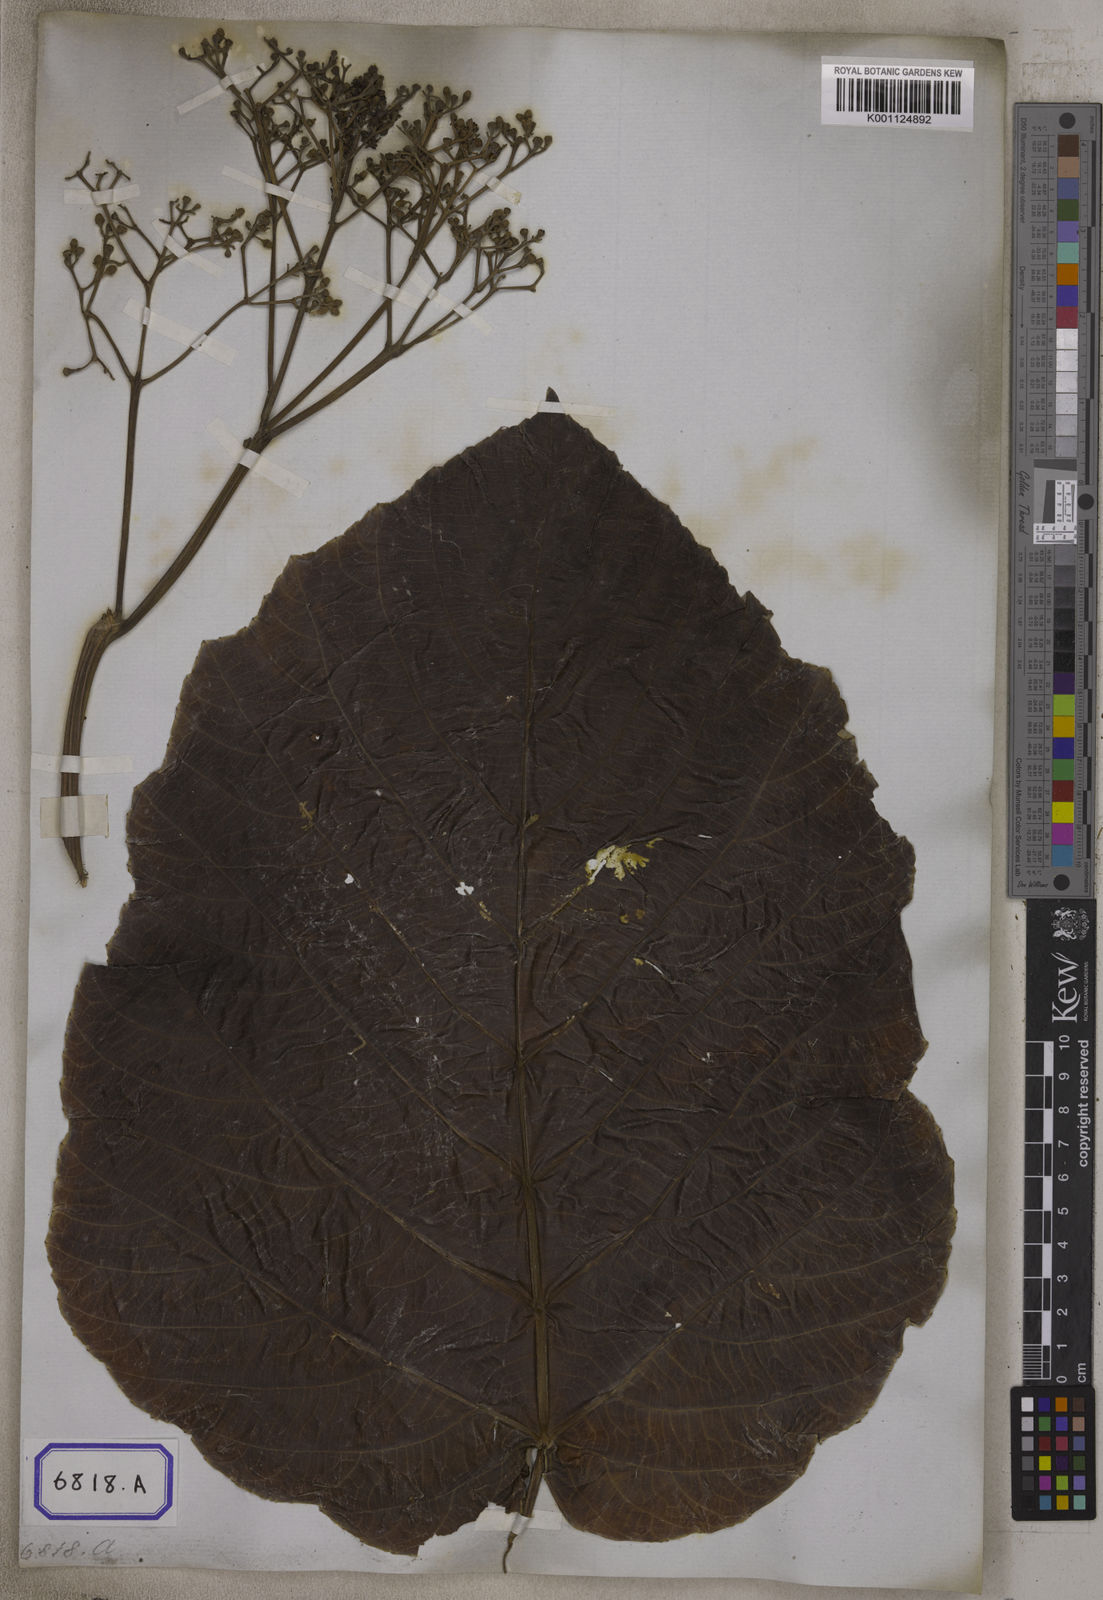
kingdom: Plantae
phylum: Tracheophyta
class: Magnoliopsida
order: Vitales
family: Vitaceae
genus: Leea
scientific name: Leea macrophylla
